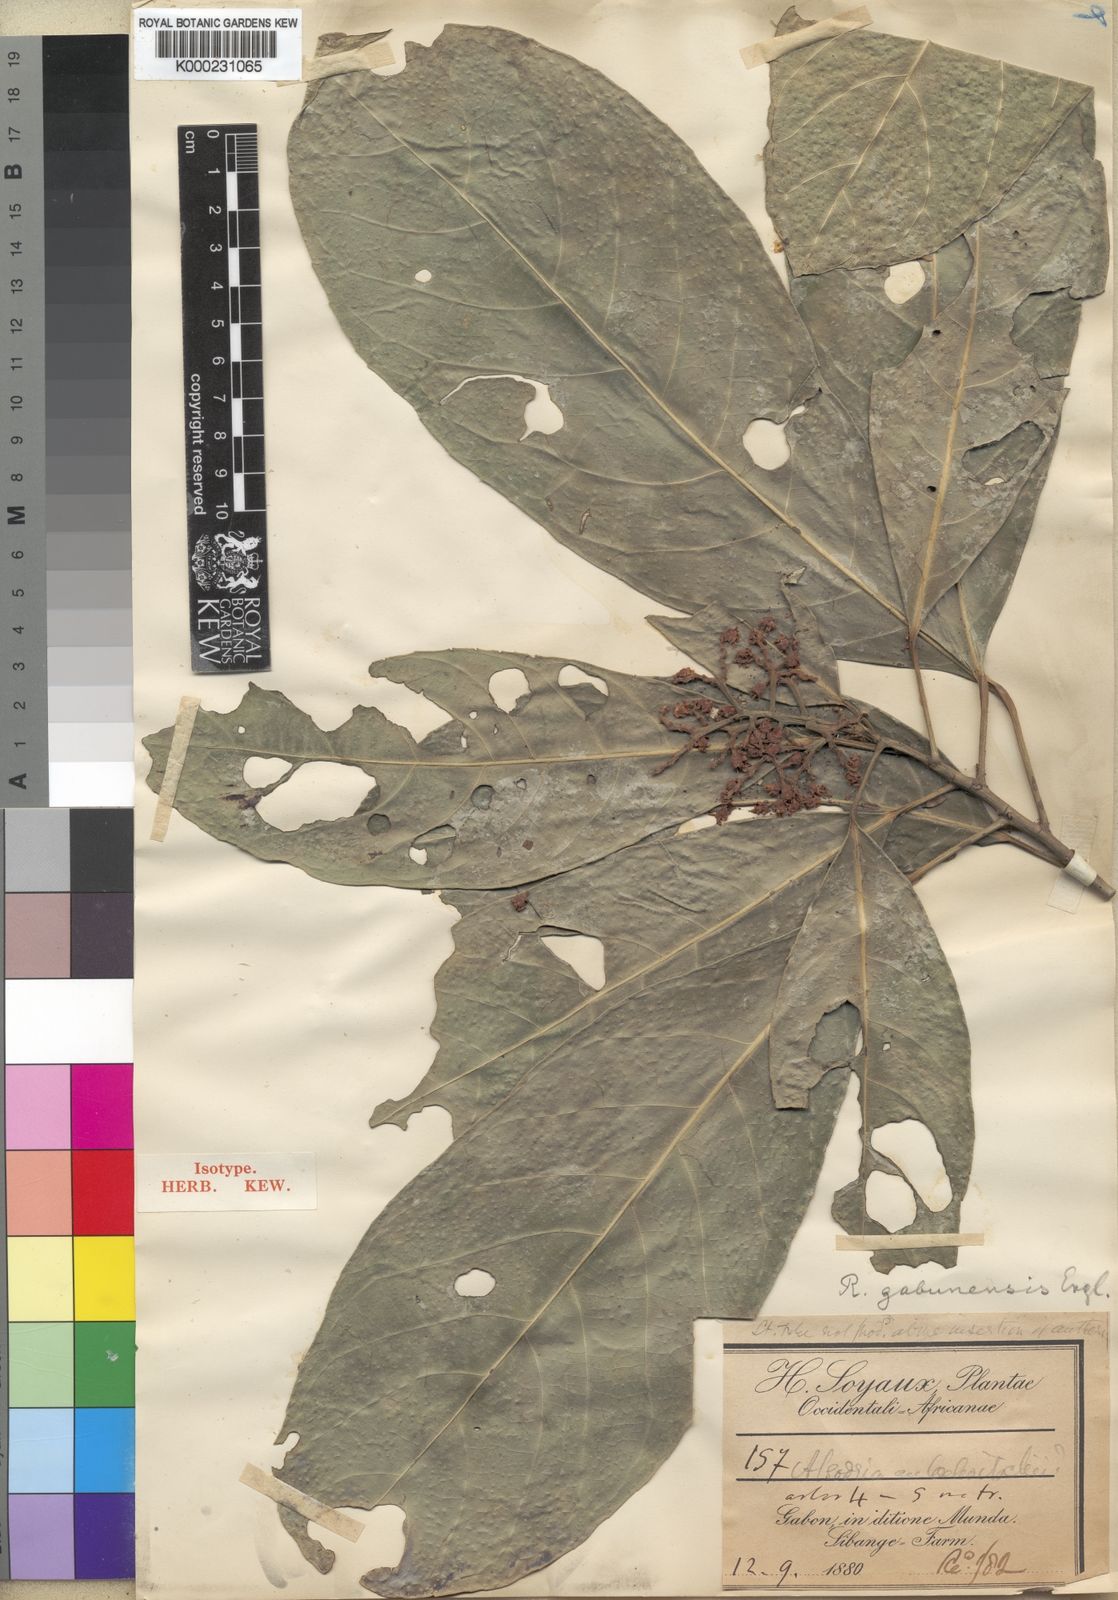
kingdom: Plantae
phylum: Tracheophyta
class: Magnoliopsida
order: Malpighiales
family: Violaceae
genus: Rinorea
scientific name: Rinorea gabunensis
